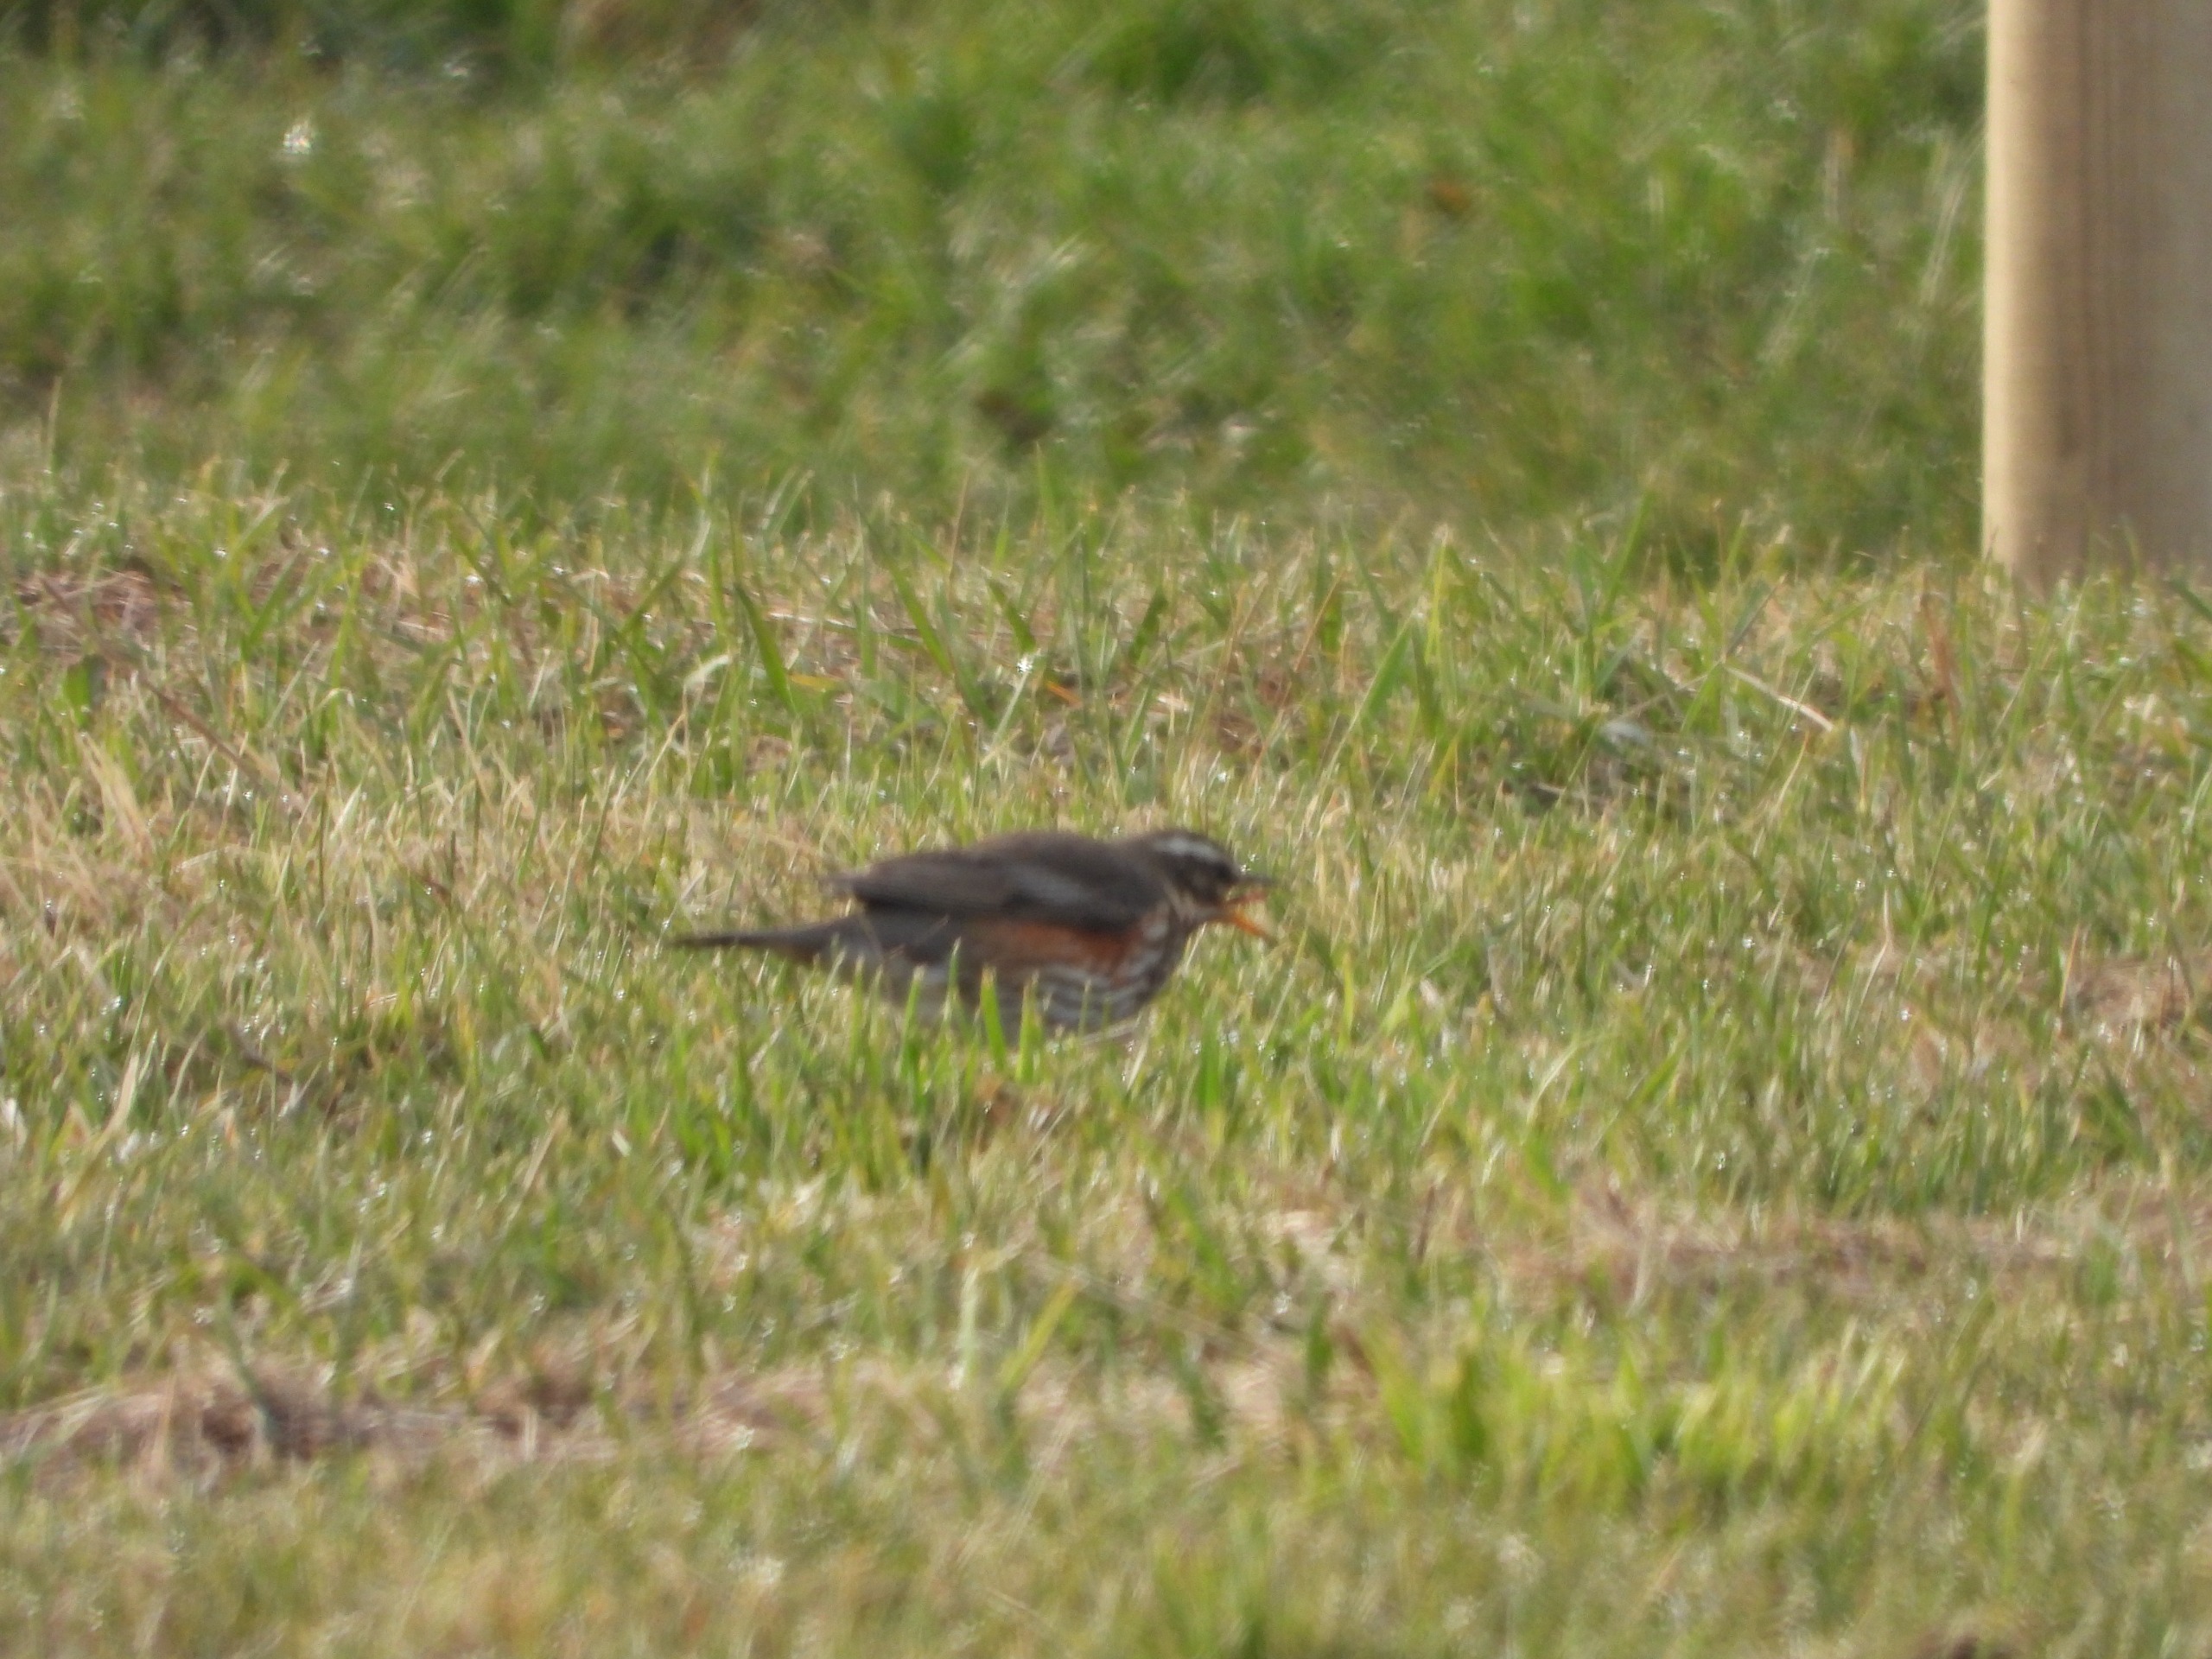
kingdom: Animalia
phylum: Chordata
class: Aves
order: Passeriformes
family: Turdidae
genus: Turdus
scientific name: Turdus iliacus
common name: Vindrossel
